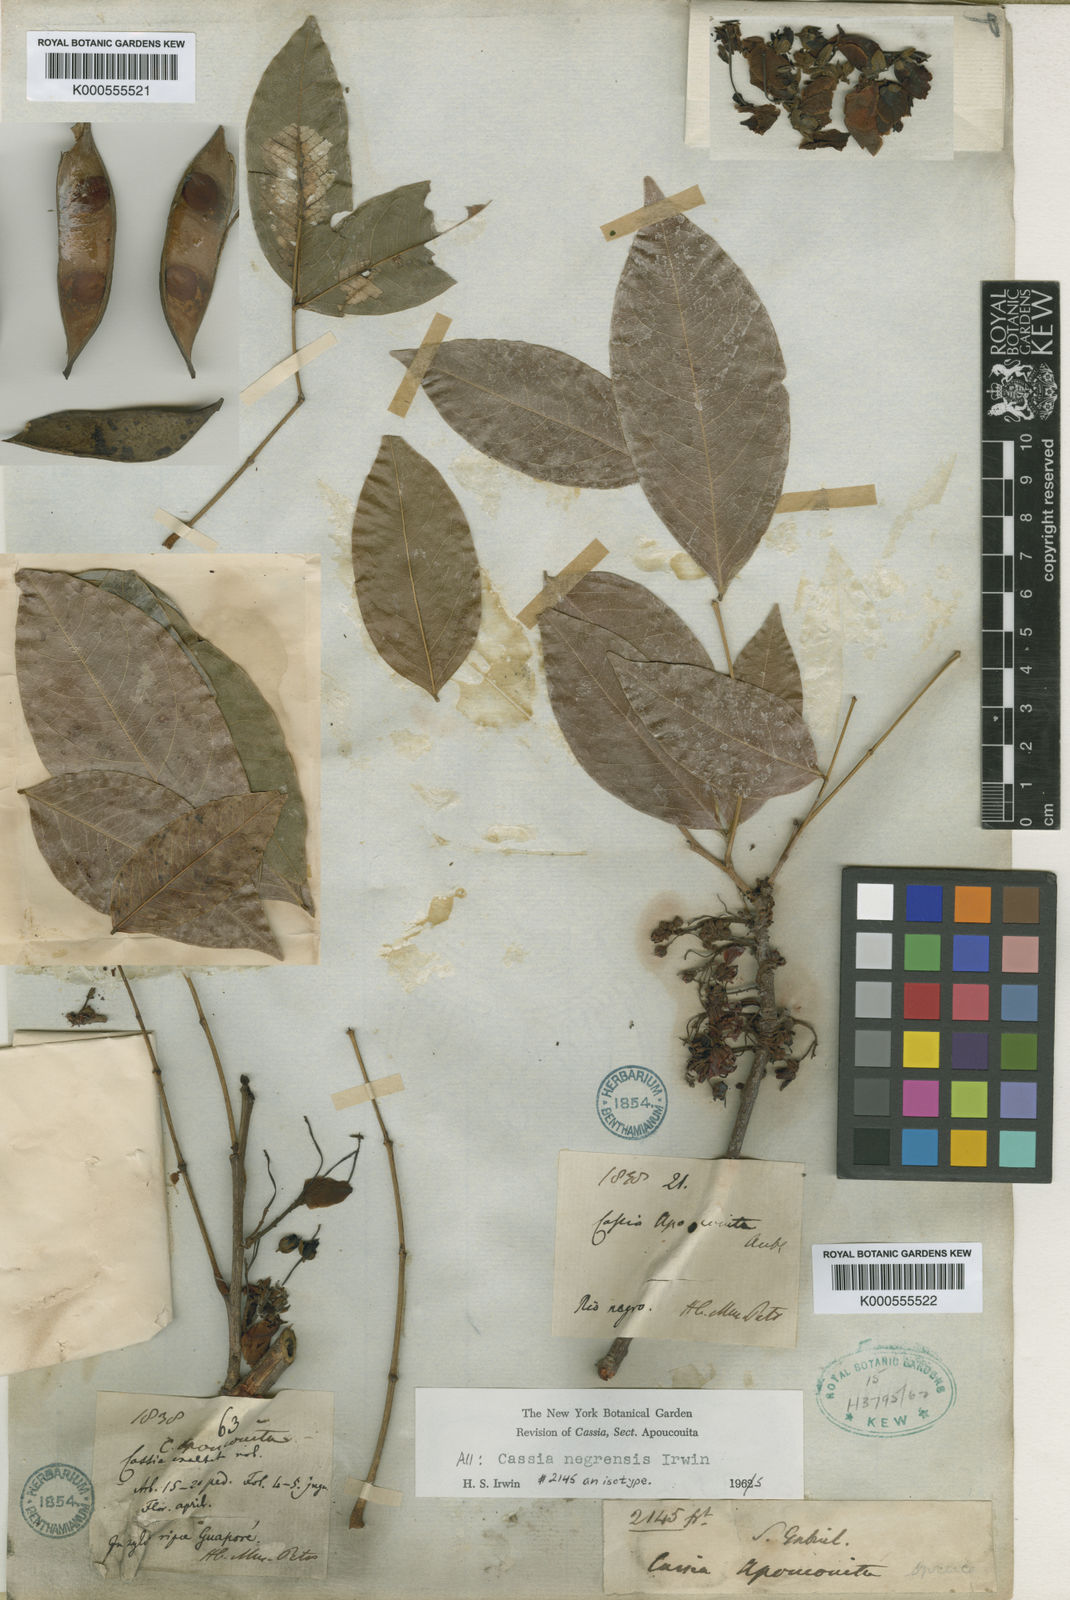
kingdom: Plantae
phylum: Tracheophyta
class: Magnoliopsida
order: Fabales
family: Fabaceae
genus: Chamaecrista
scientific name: Chamaecrista negrensis
